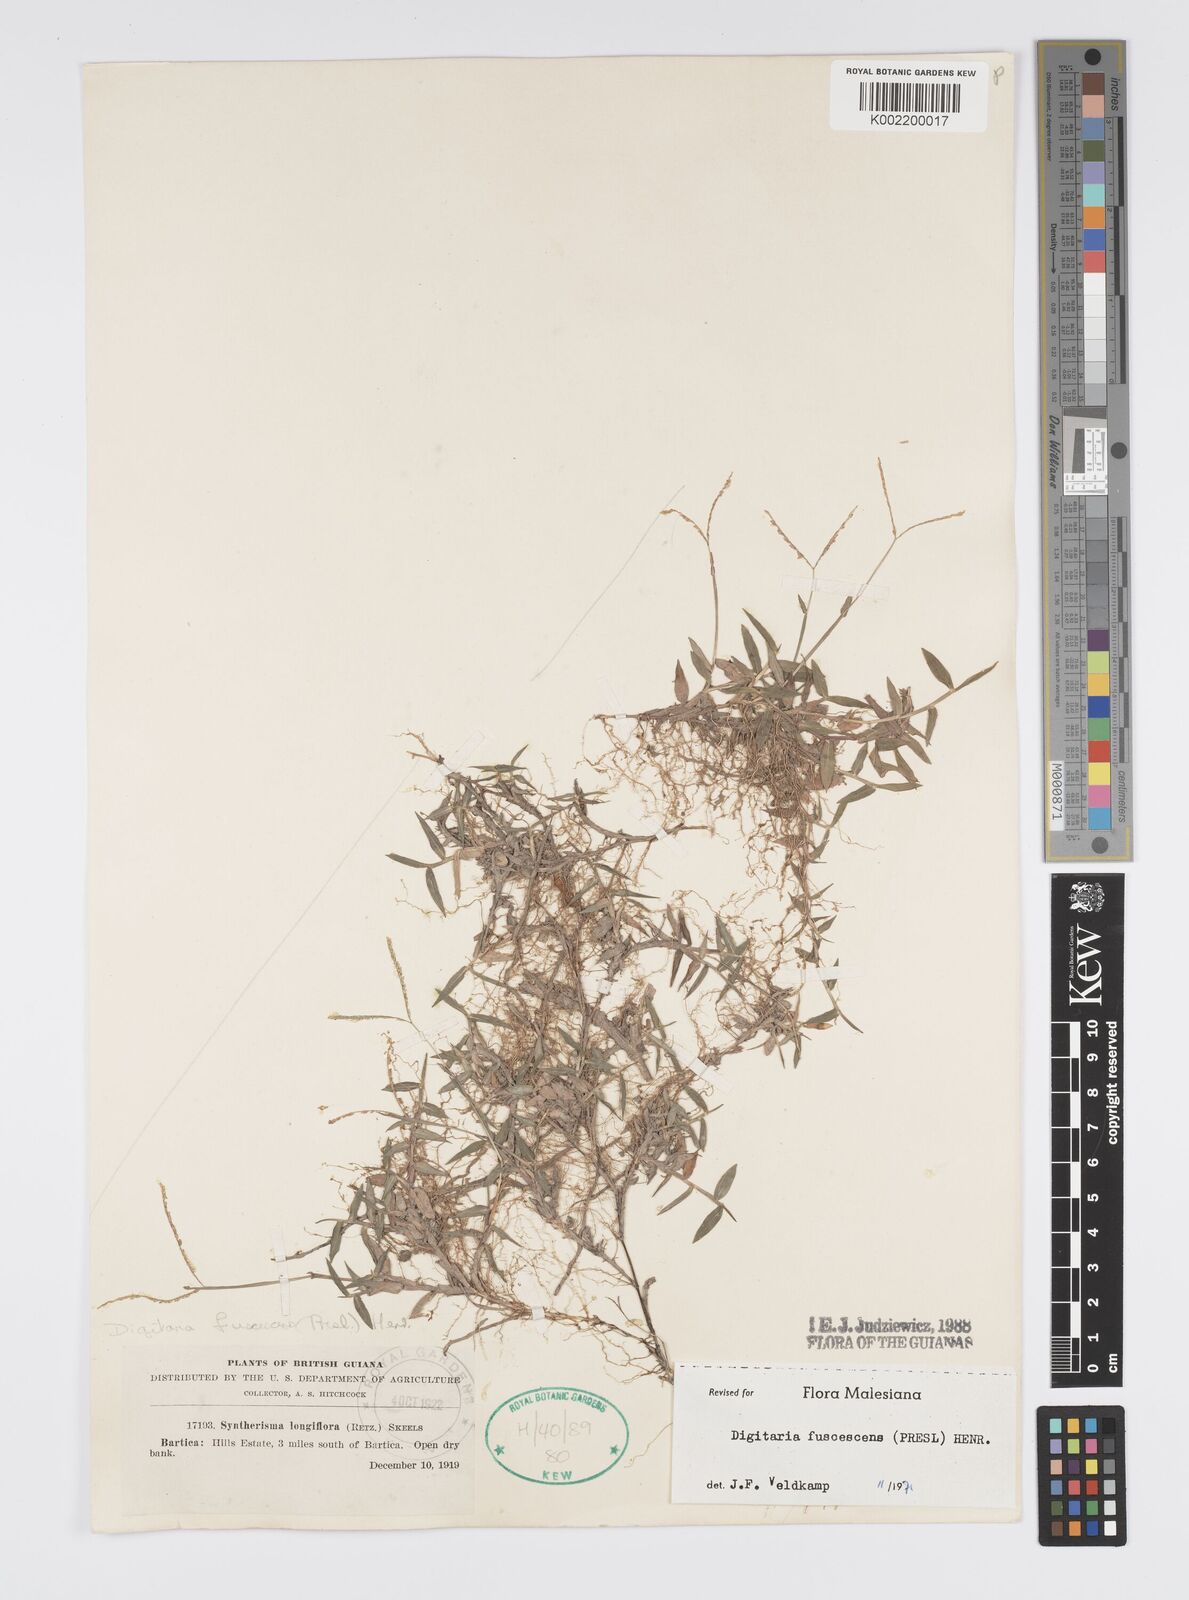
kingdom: Plantae
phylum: Tracheophyta
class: Liliopsida
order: Poales
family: Poaceae
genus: Digitaria
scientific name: Digitaria fuscescens
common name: Yellow crabgrass
